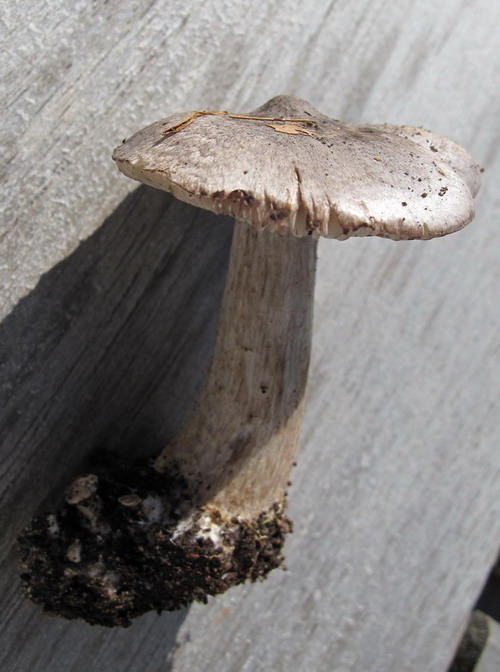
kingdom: Fungi
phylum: Basidiomycota
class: Agaricomycetes
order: Agaricales
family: Tricholomataceae
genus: Tricholoma
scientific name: Tricholoma sciodes
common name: stribet ridderhat
